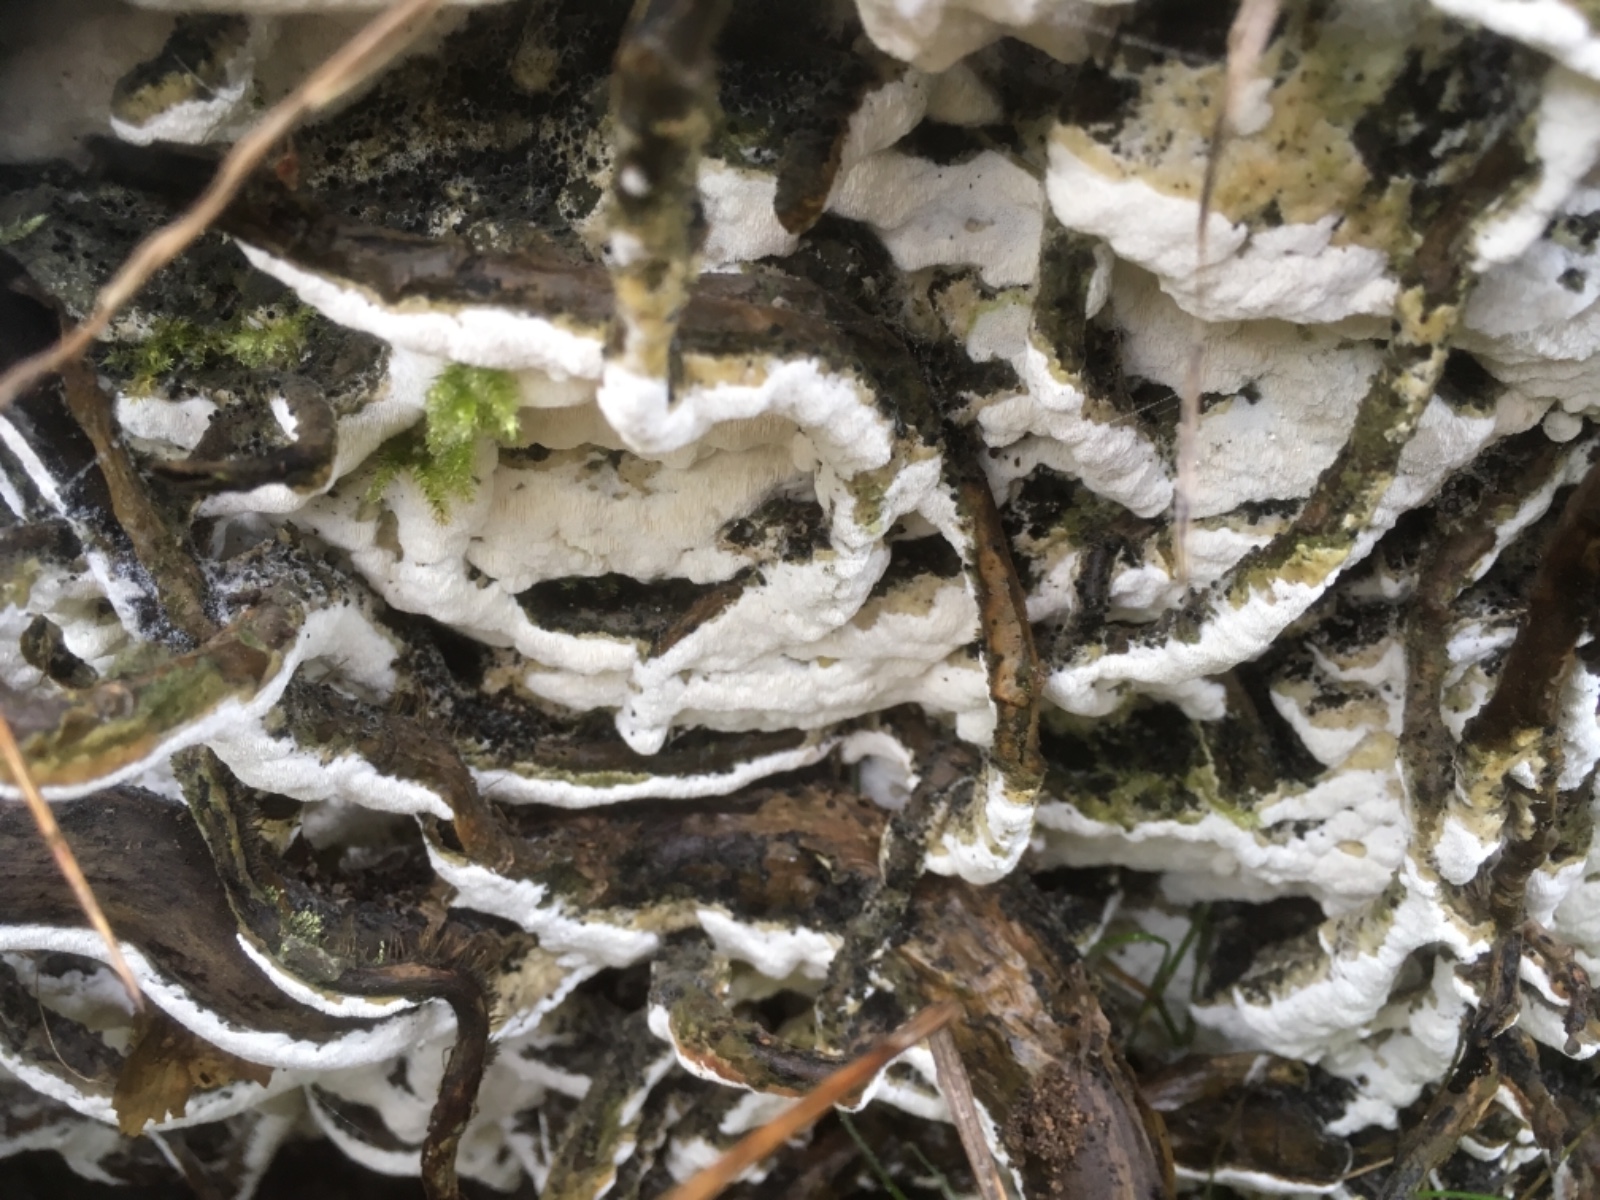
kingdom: Fungi
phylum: Basidiomycota
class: Agaricomycetes
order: Hymenochaetales
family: Oxyporaceae
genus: Oxyporus
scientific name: Oxyporus populinus
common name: sammenvokset trylleporesvamp
